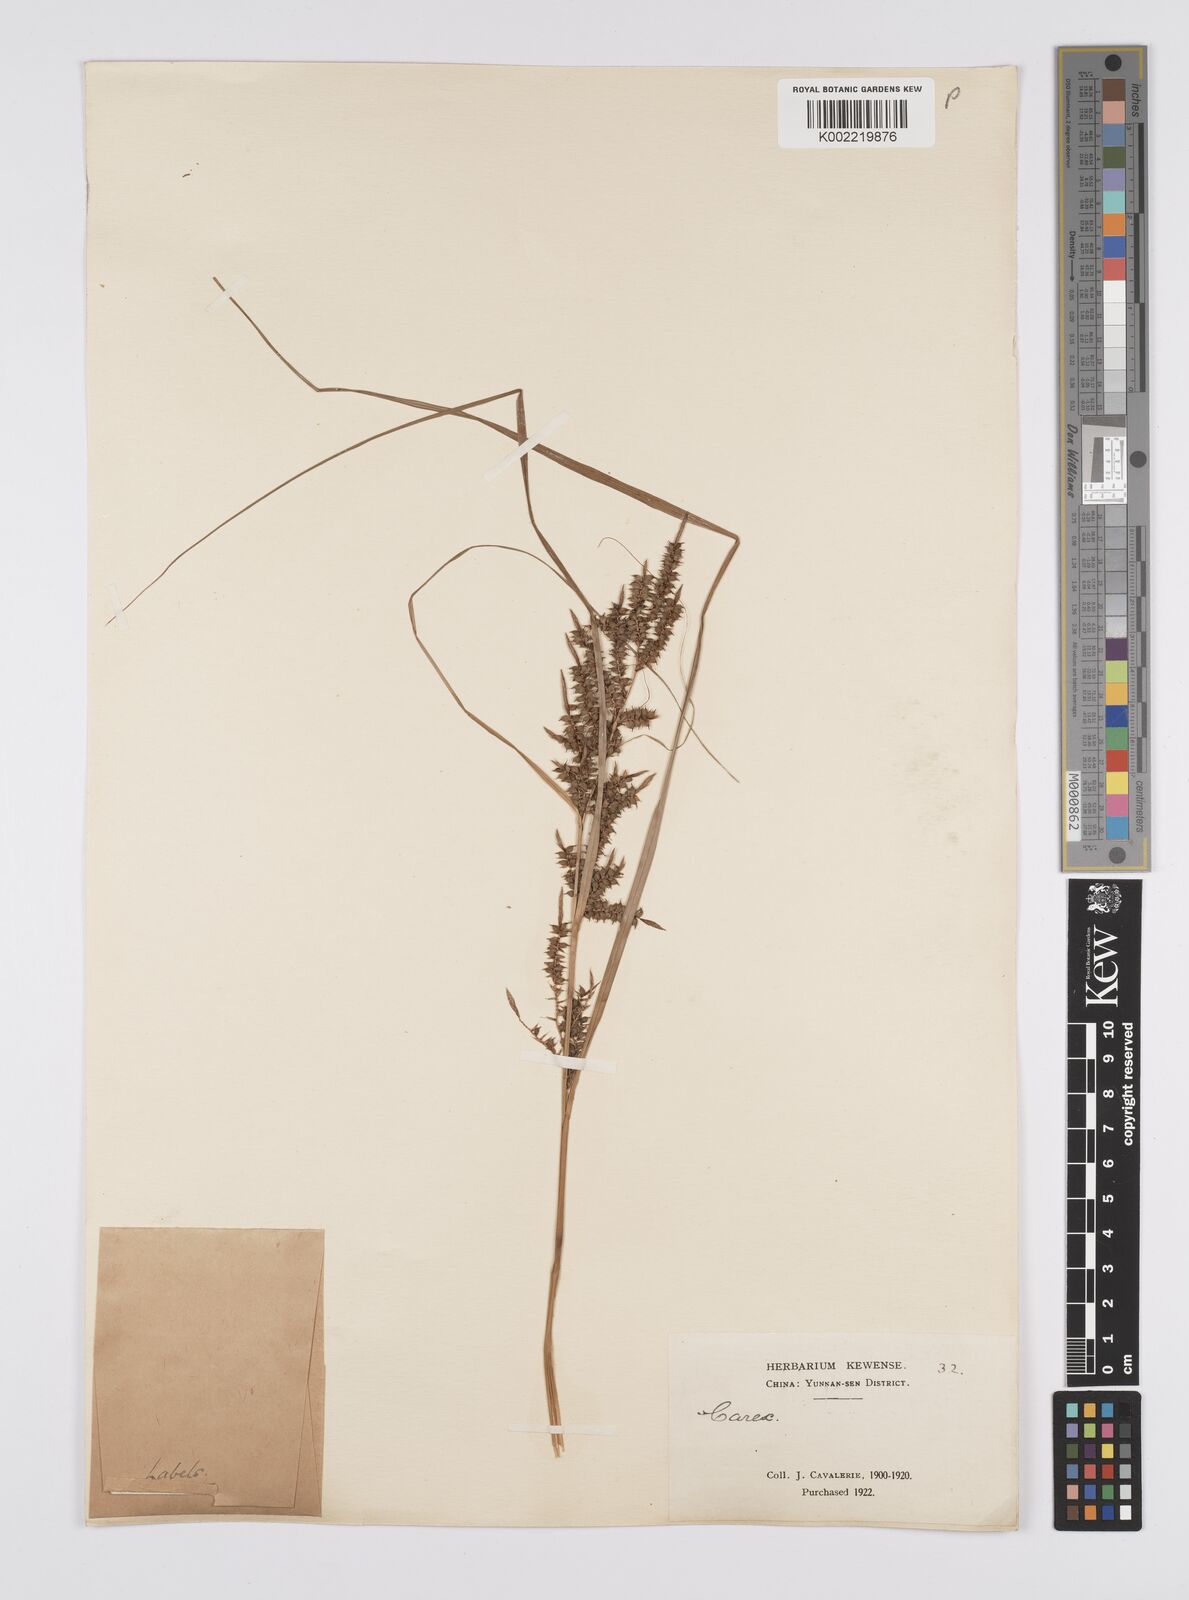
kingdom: Plantae
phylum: Tracheophyta
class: Liliopsida
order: Poales
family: Cyperaceae
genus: Carex
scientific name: Carex baccans
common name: Crimson seeded sedge
